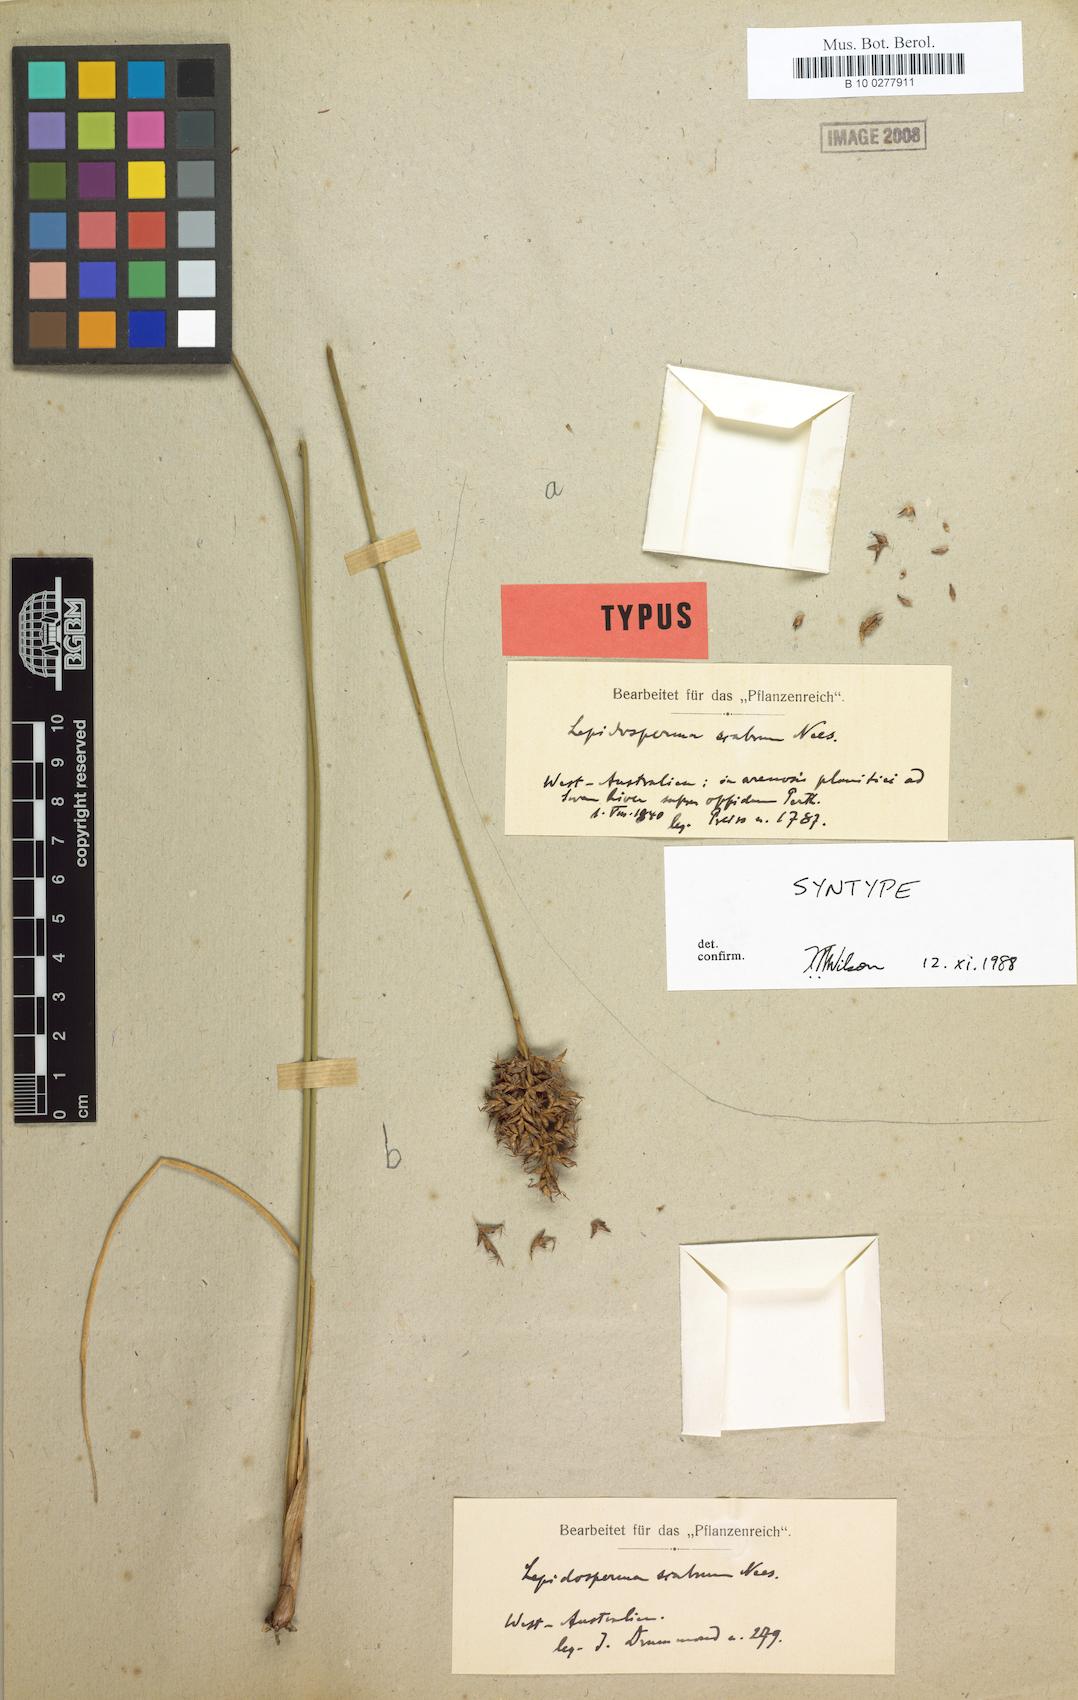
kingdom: Plantae
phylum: Tracheophyta
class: Liliopsida
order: Poales
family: Cyperaceae
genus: Lepidosperma
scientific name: Lepidosperma scabrum
